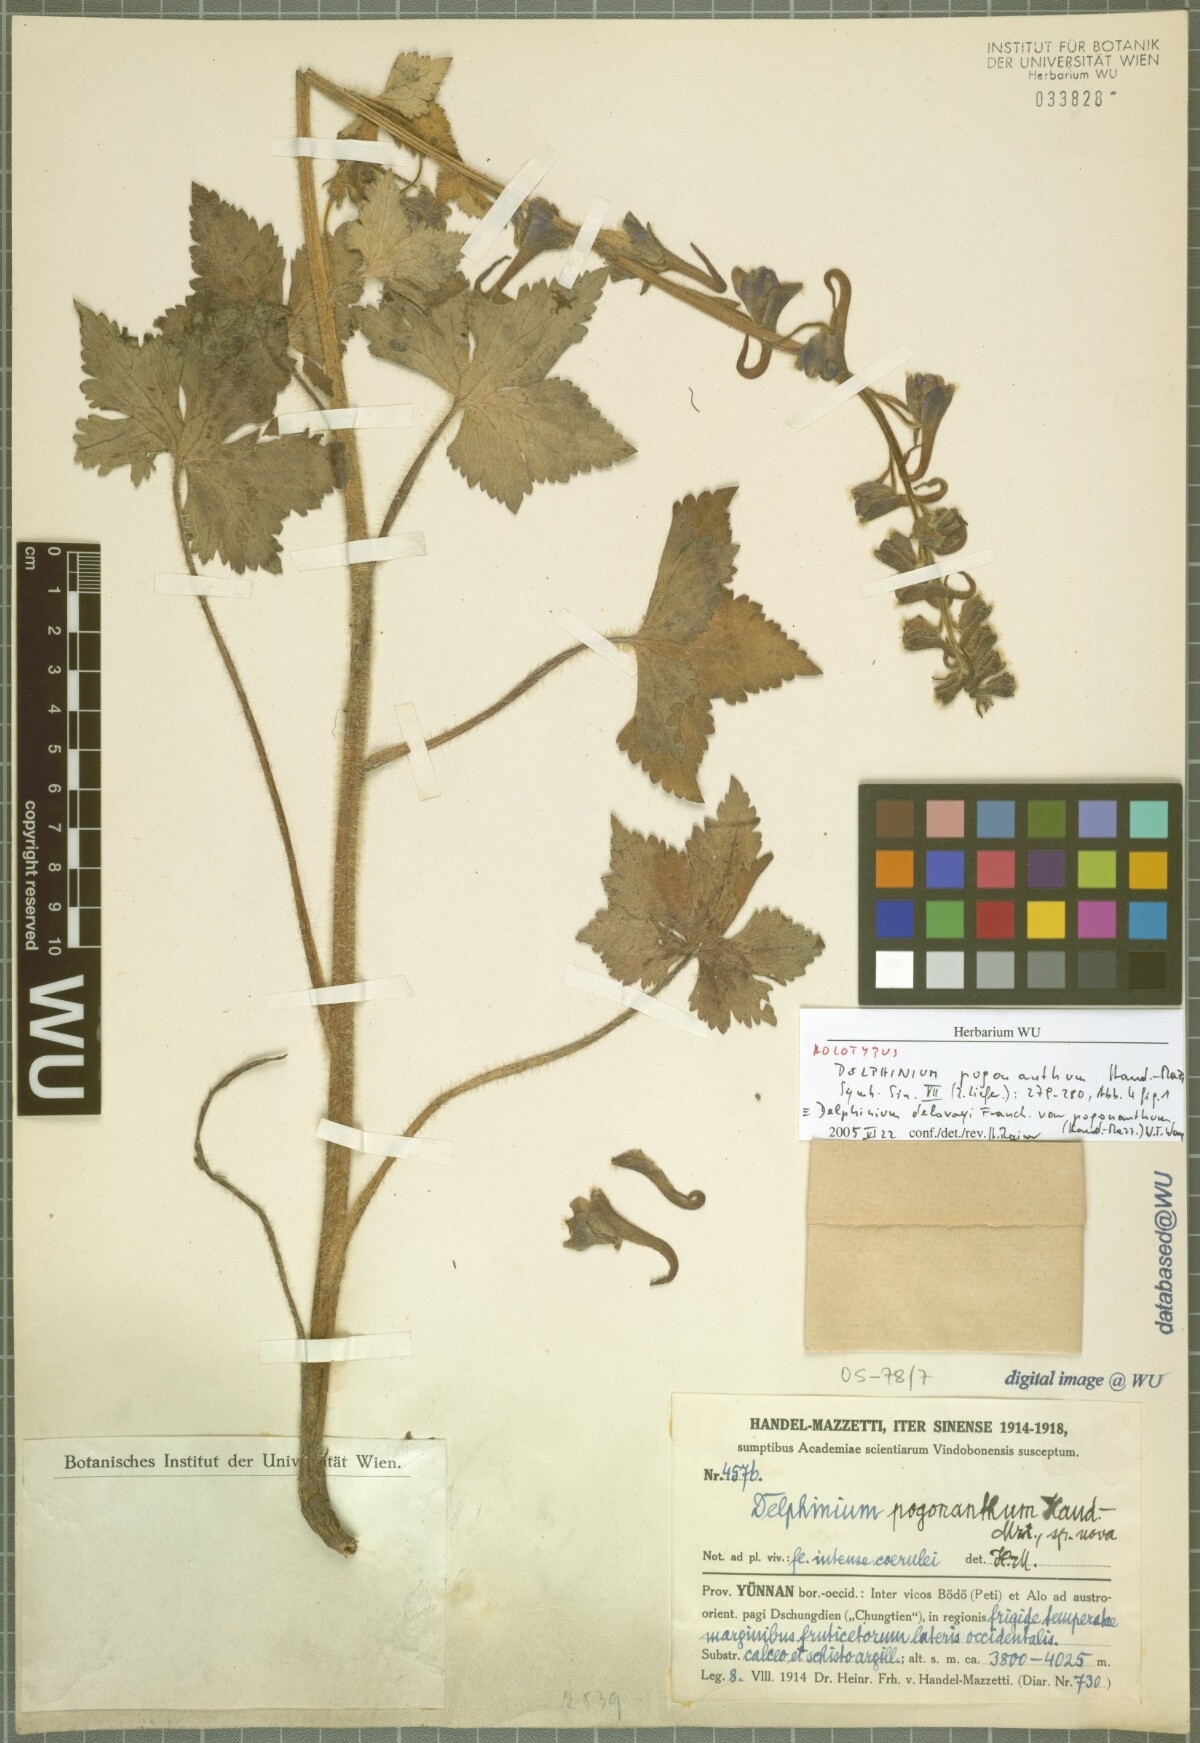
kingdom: Plantae
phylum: Tracheophyta
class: Magnoliopsida
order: Ranunculales
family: Ranunculaceae
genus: Delphinium
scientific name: Delphinium delavayi
